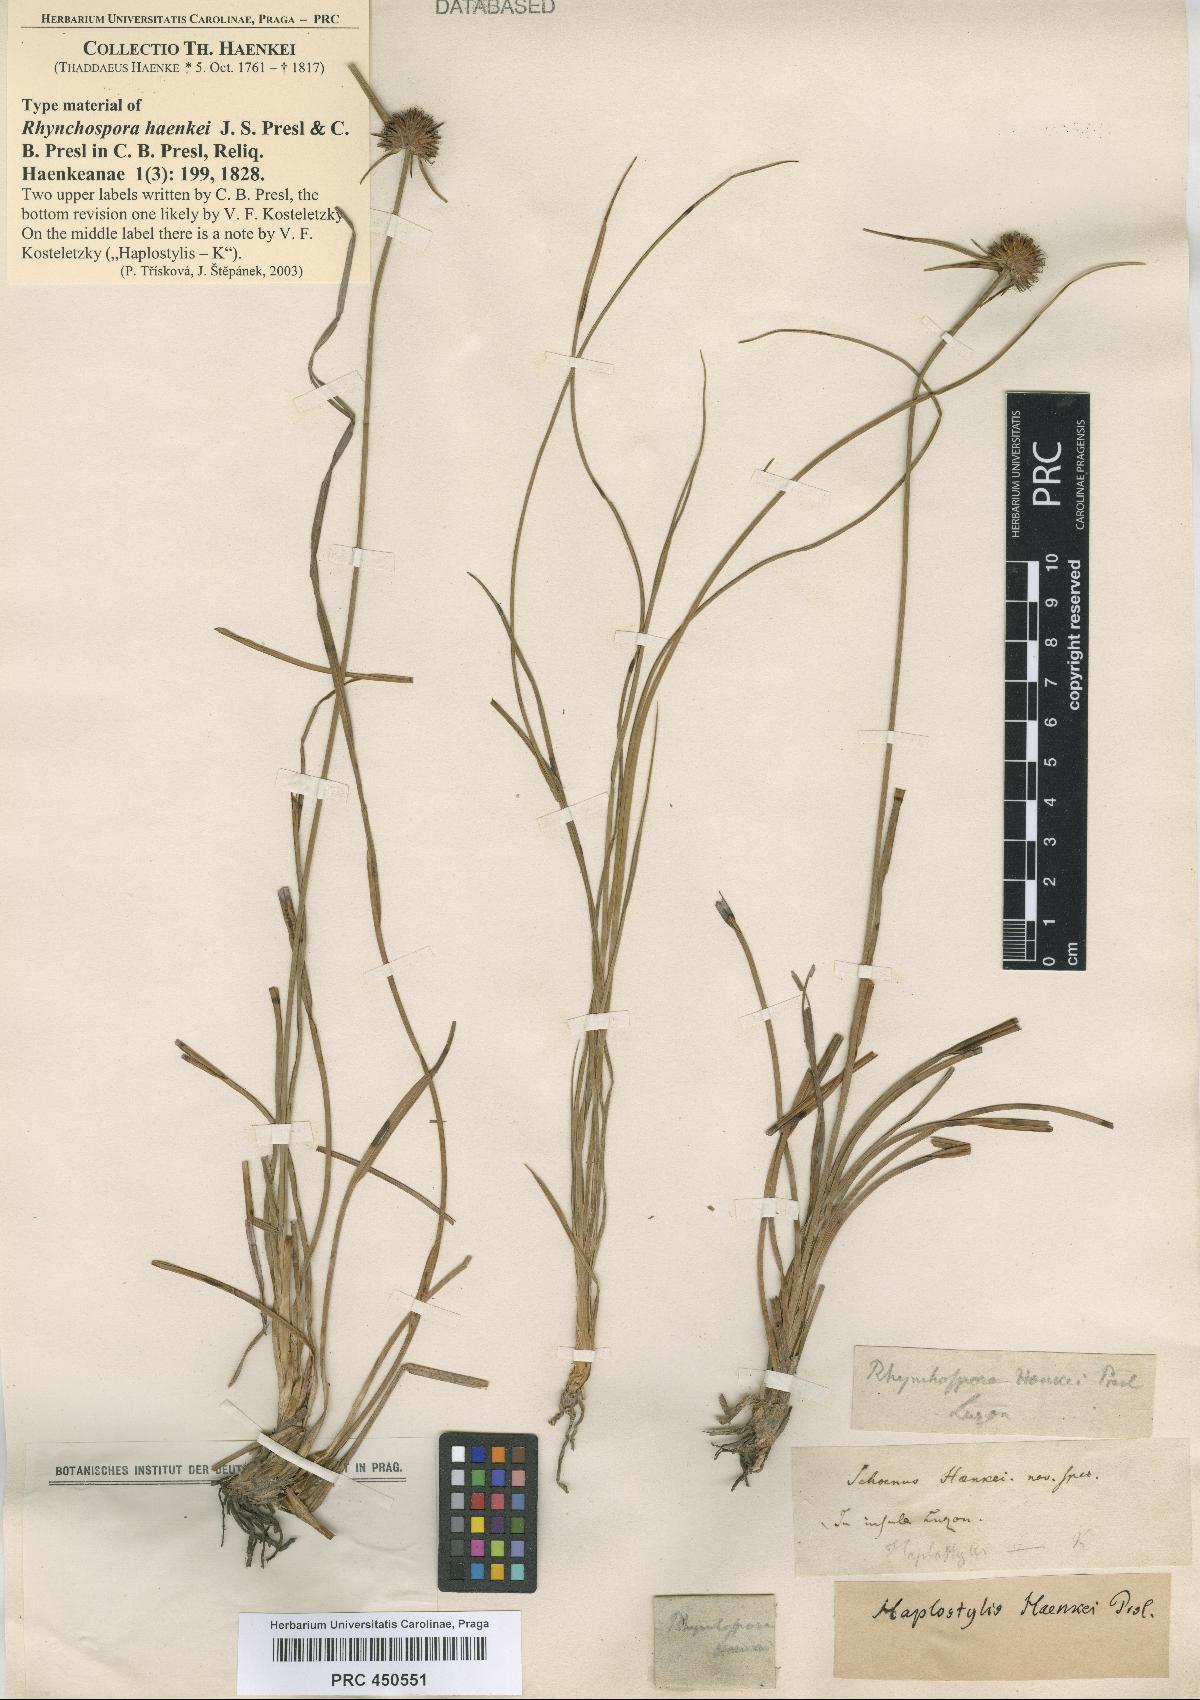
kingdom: Plantae
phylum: Tracheophyta
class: Liliopsida
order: Poales
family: Cyperaceae
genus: Rhynchospora
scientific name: Rhynchospora rubra
